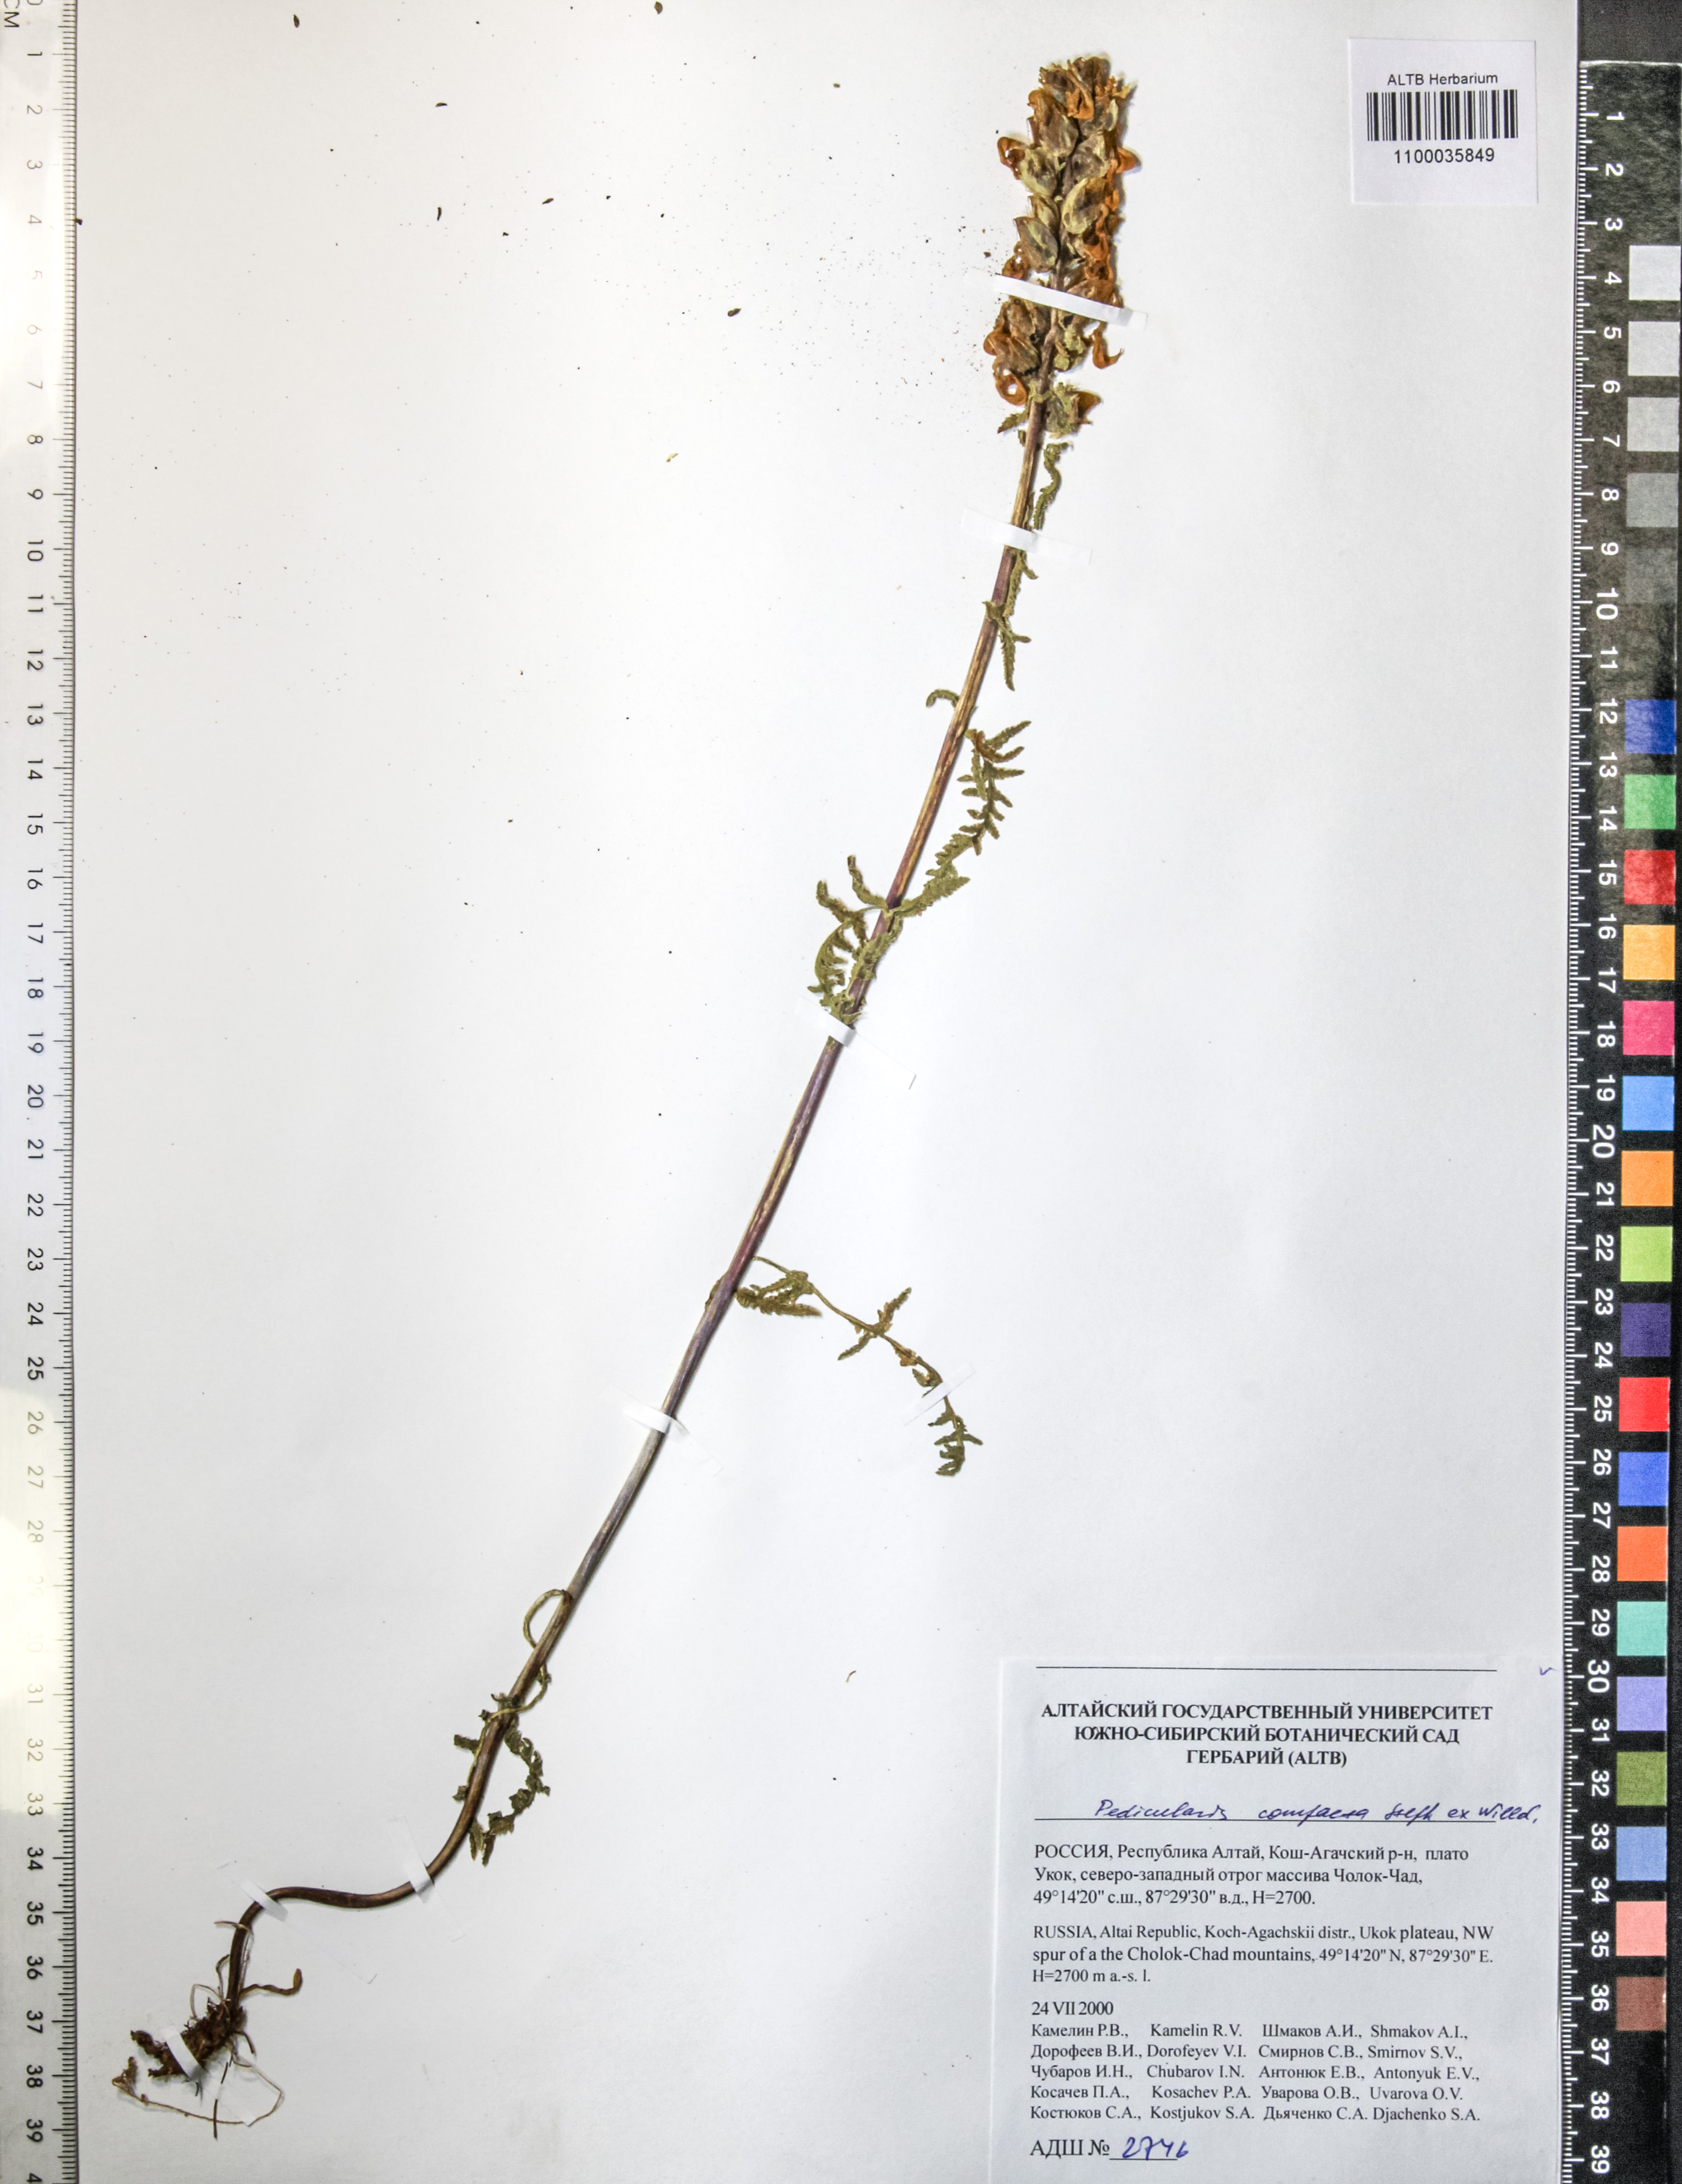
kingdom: Plantae
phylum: Tracheophyta
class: Magnoliopsida
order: Lamiales
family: Orobanchaceae
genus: Pedicularis
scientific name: Pedicularis compacta
